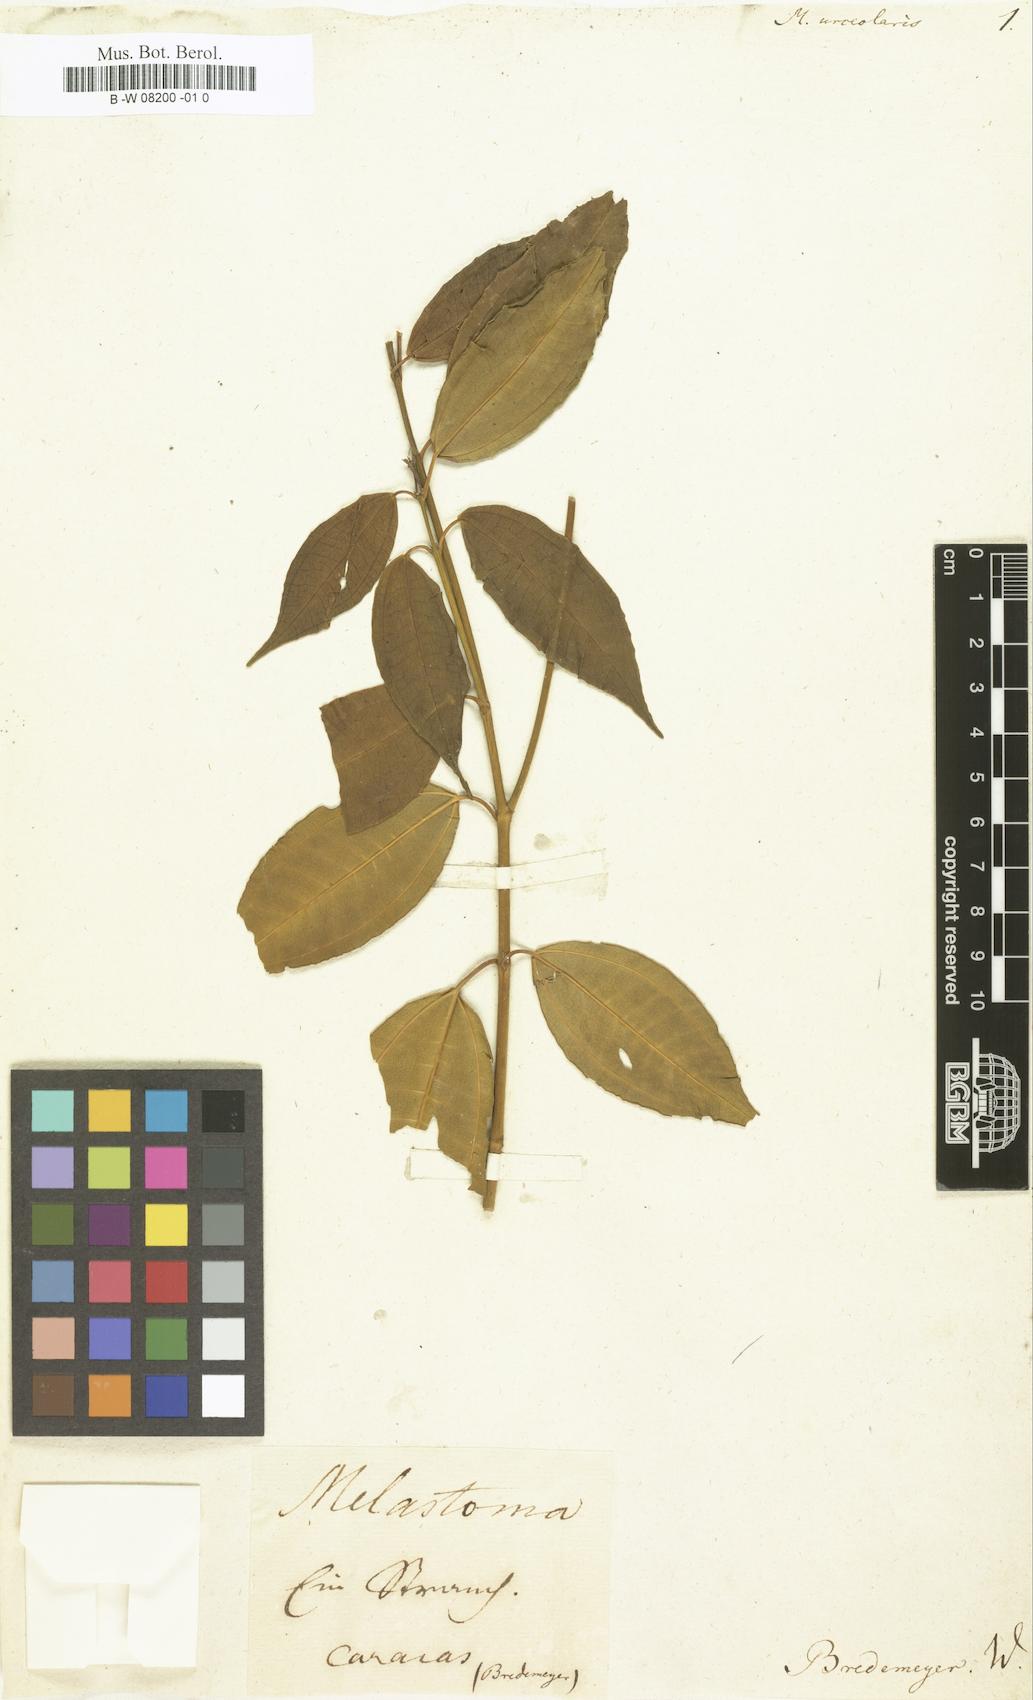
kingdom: Plantae
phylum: Tracheophyta
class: Magnoliopsida
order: Myrtales
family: Melastomataceae
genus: Melastoma
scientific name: Melastoma
